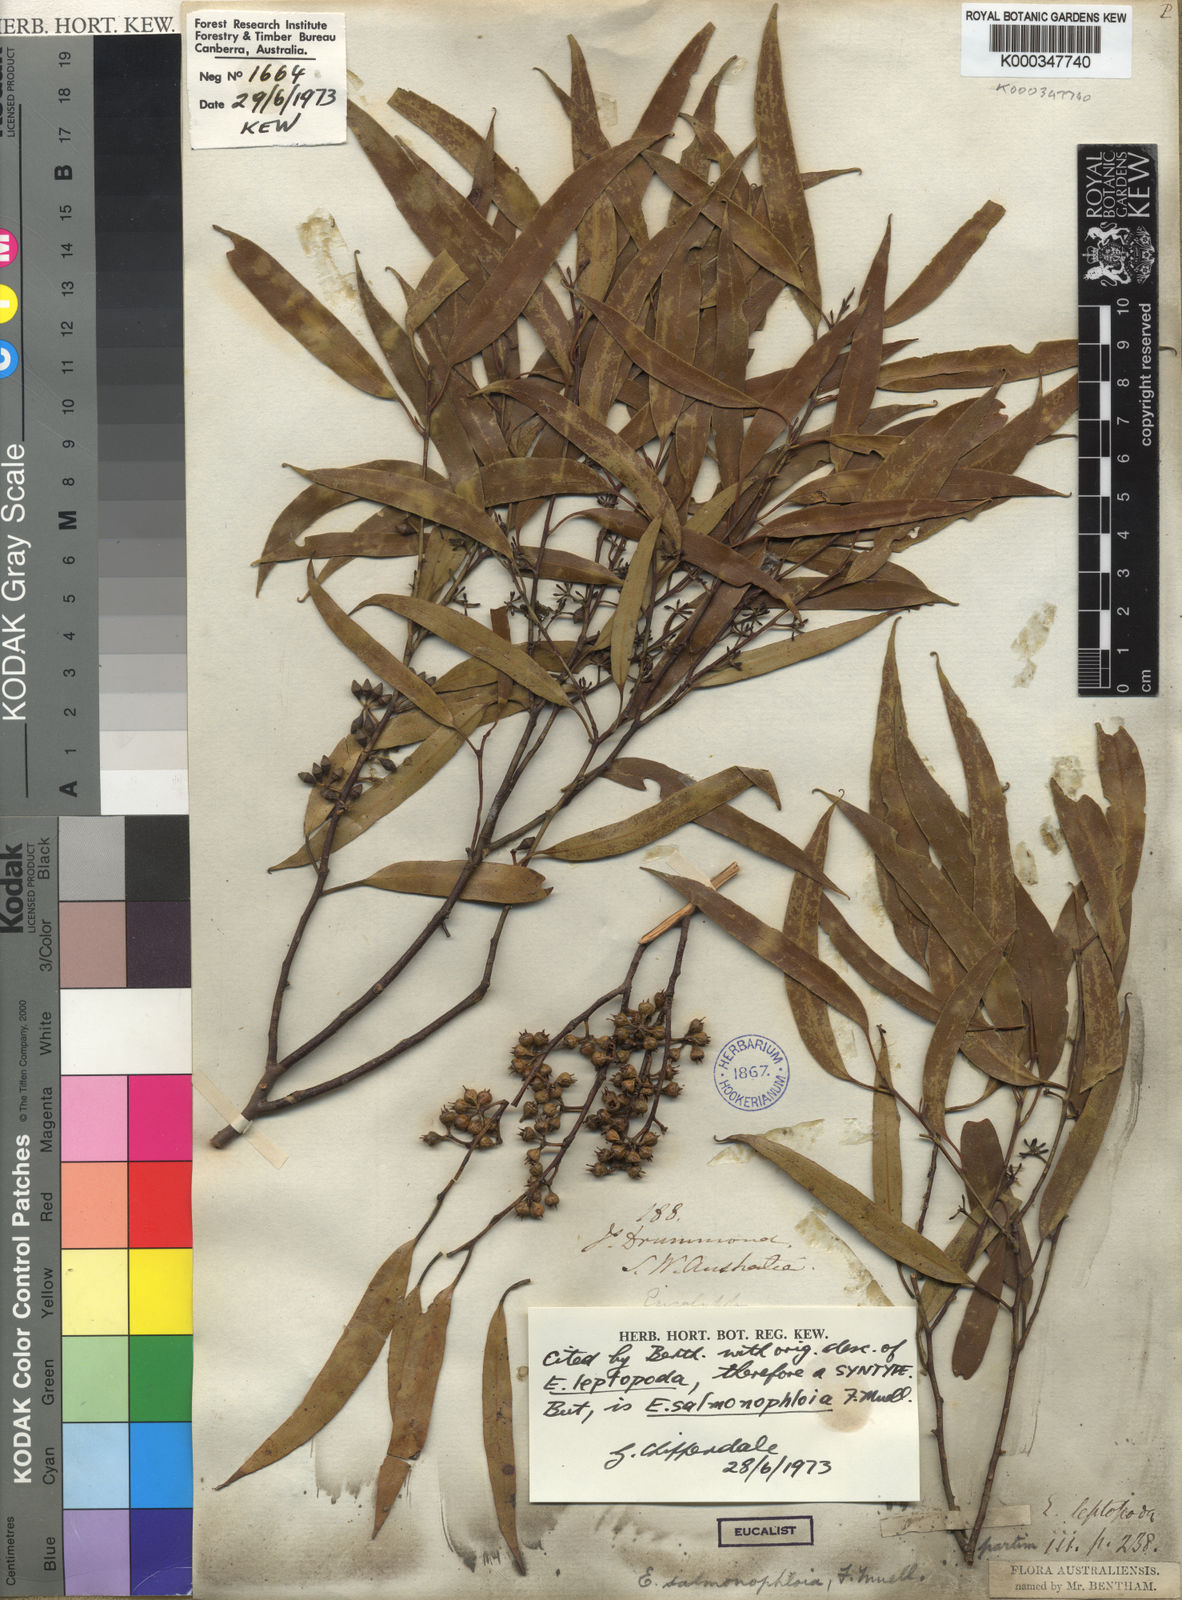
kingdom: Plantae
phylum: Tracheophyta
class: Magnoliopsida
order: Myrtales
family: Myrtaceae
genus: Eucalyptus
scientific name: Eucalyptus salmonophloia
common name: Salmon gum
